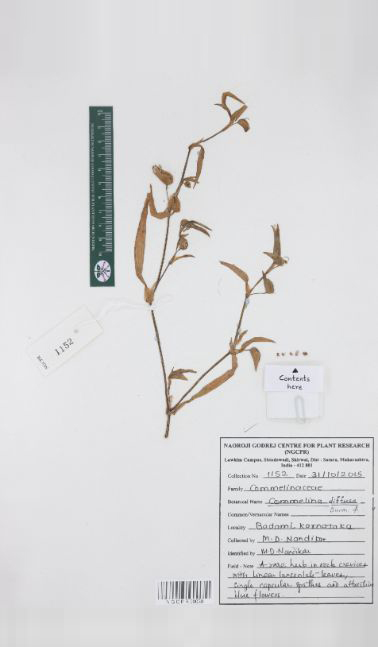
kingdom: Plantae
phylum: Tracheophyta
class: Liliopsida
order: Commelinales
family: Commelinaceae
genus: Commelina
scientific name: Commelina diffusa
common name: Climbing dayflower
